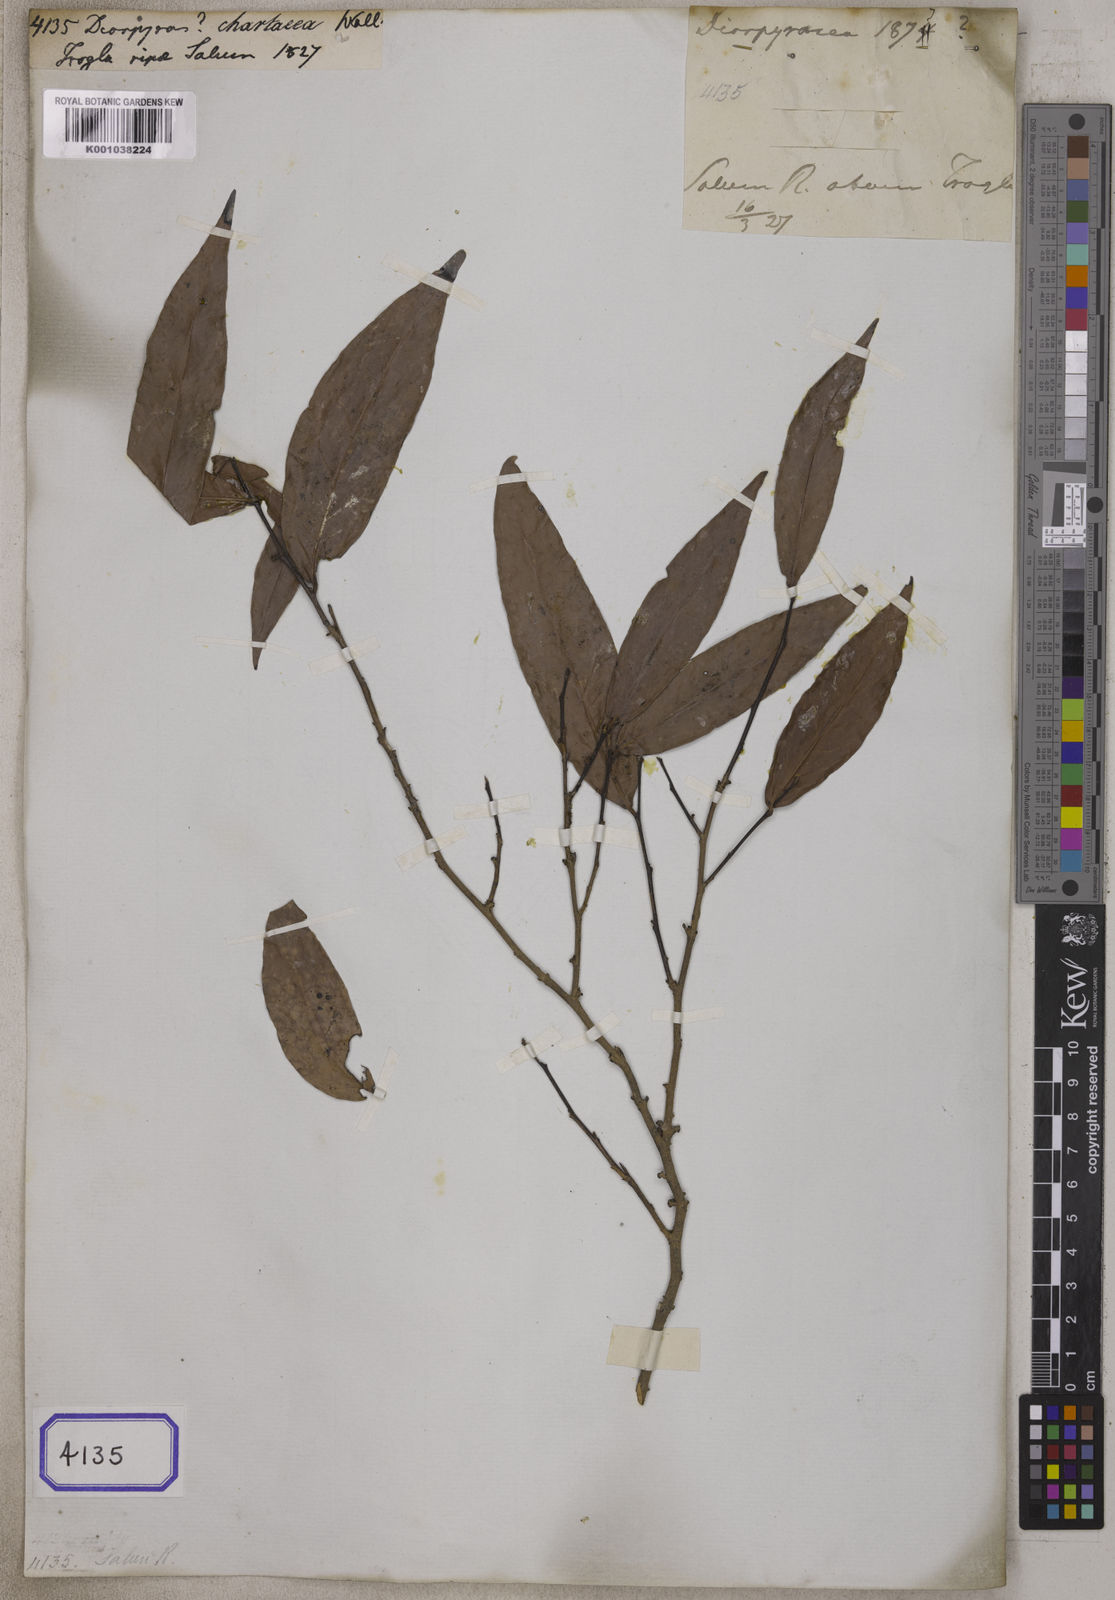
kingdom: Plantae
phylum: Tracheophyta
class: Magnoliopsida
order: Ericales
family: Ebenaceae
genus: Diospyros
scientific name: Diospyros
